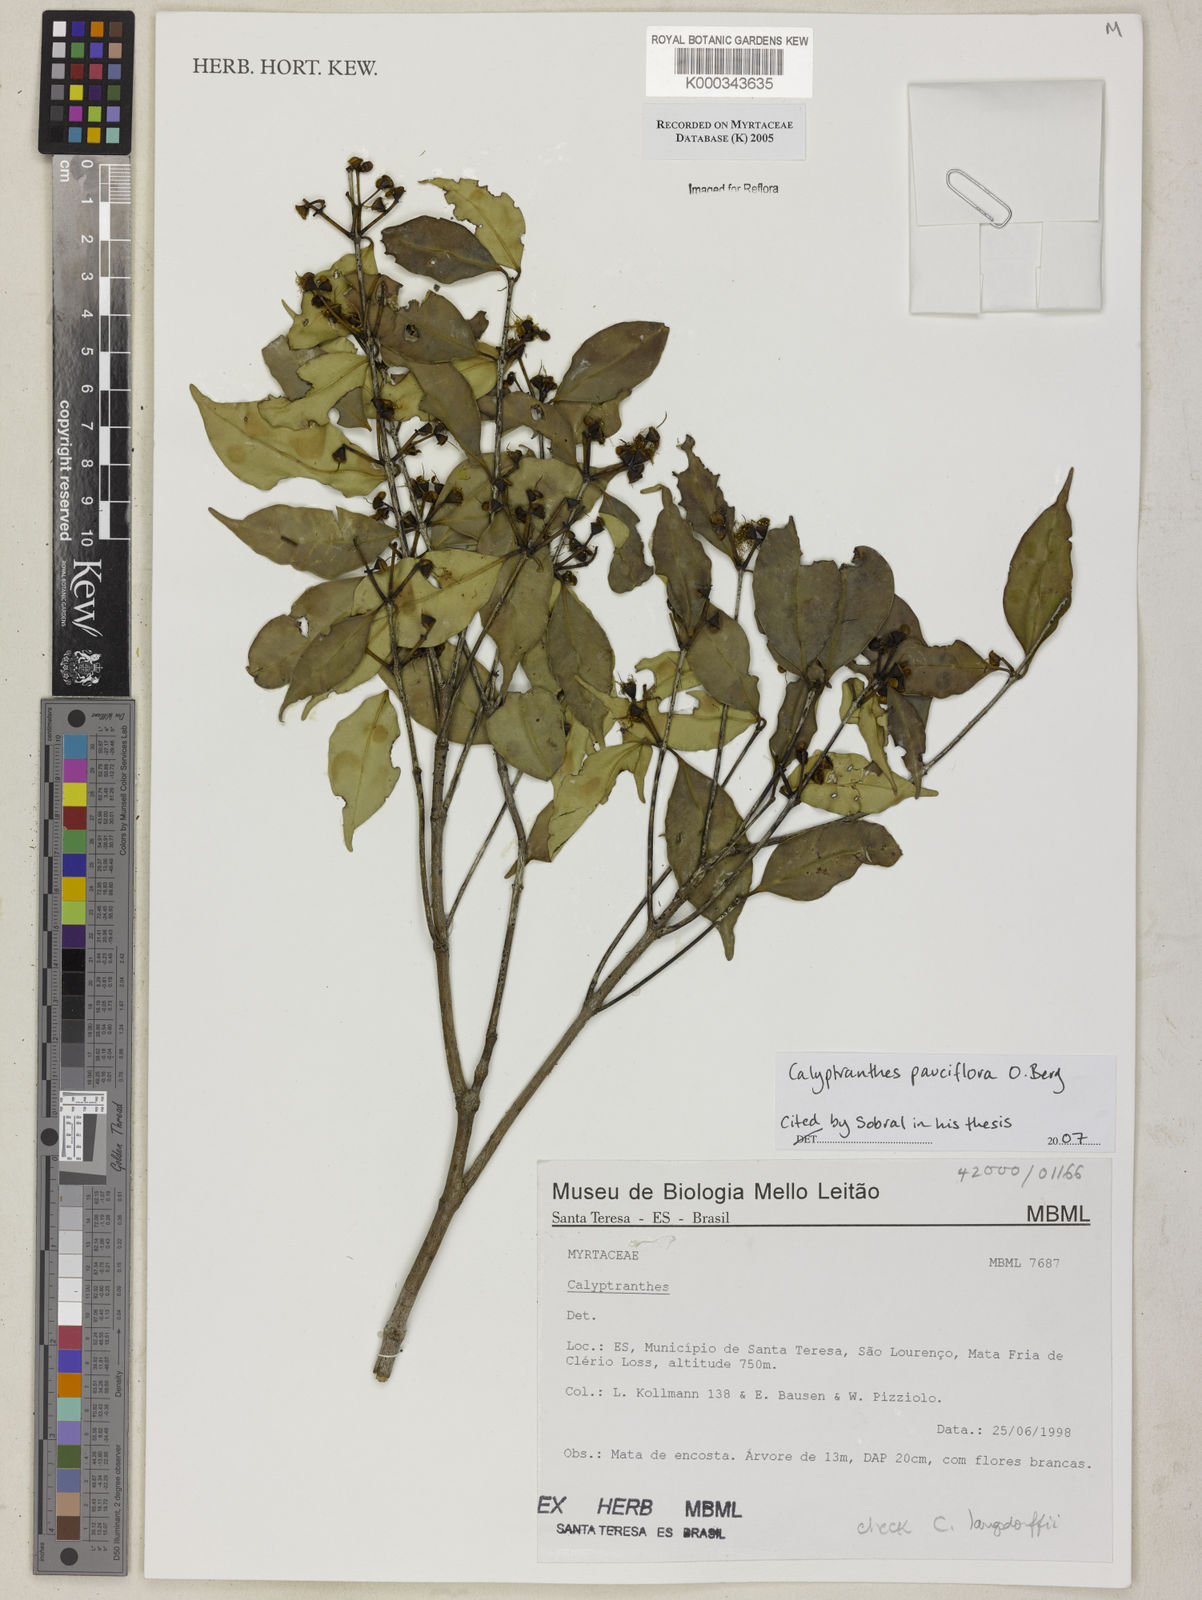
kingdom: Plantae
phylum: Tracheophyta
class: Magnoliopsida
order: Myrtales
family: Myrtaceae
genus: Calyptranthes
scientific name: Calyptranthes
